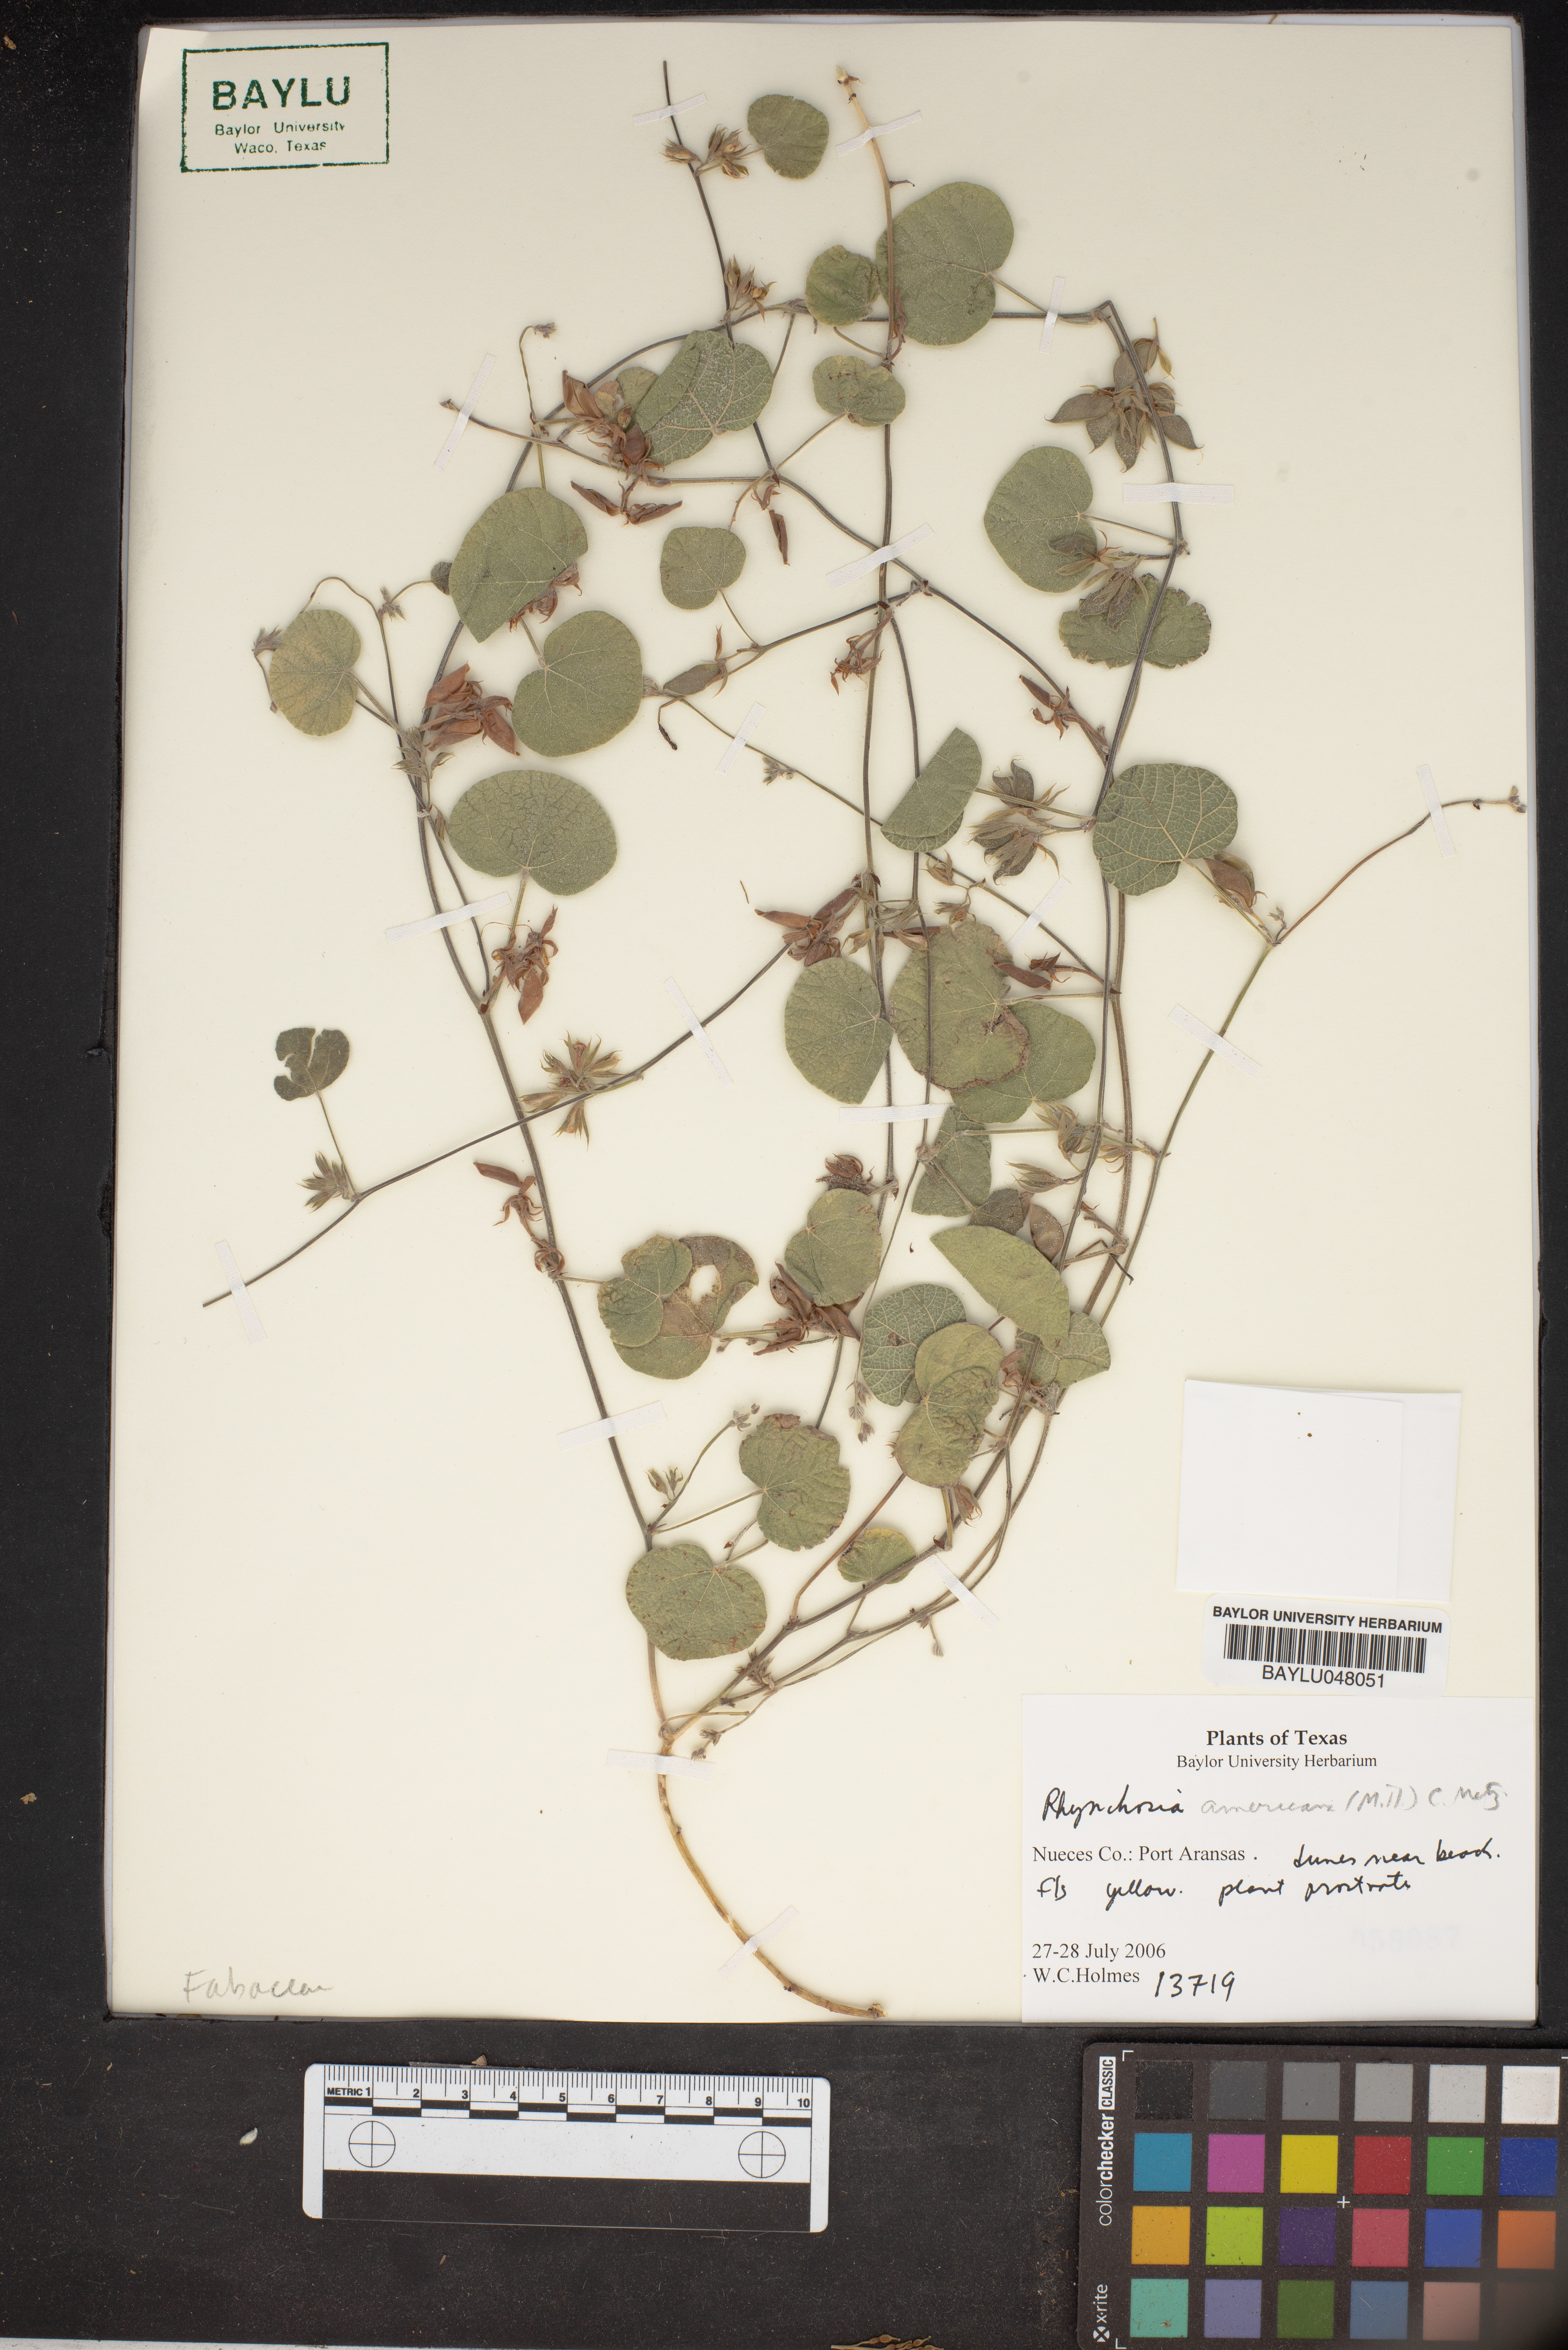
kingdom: Plantae
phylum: Tracheophyta
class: Magnoliopsida
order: Fabales
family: Fabaceae
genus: Rhynchosia
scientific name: Rhynchosia americana
